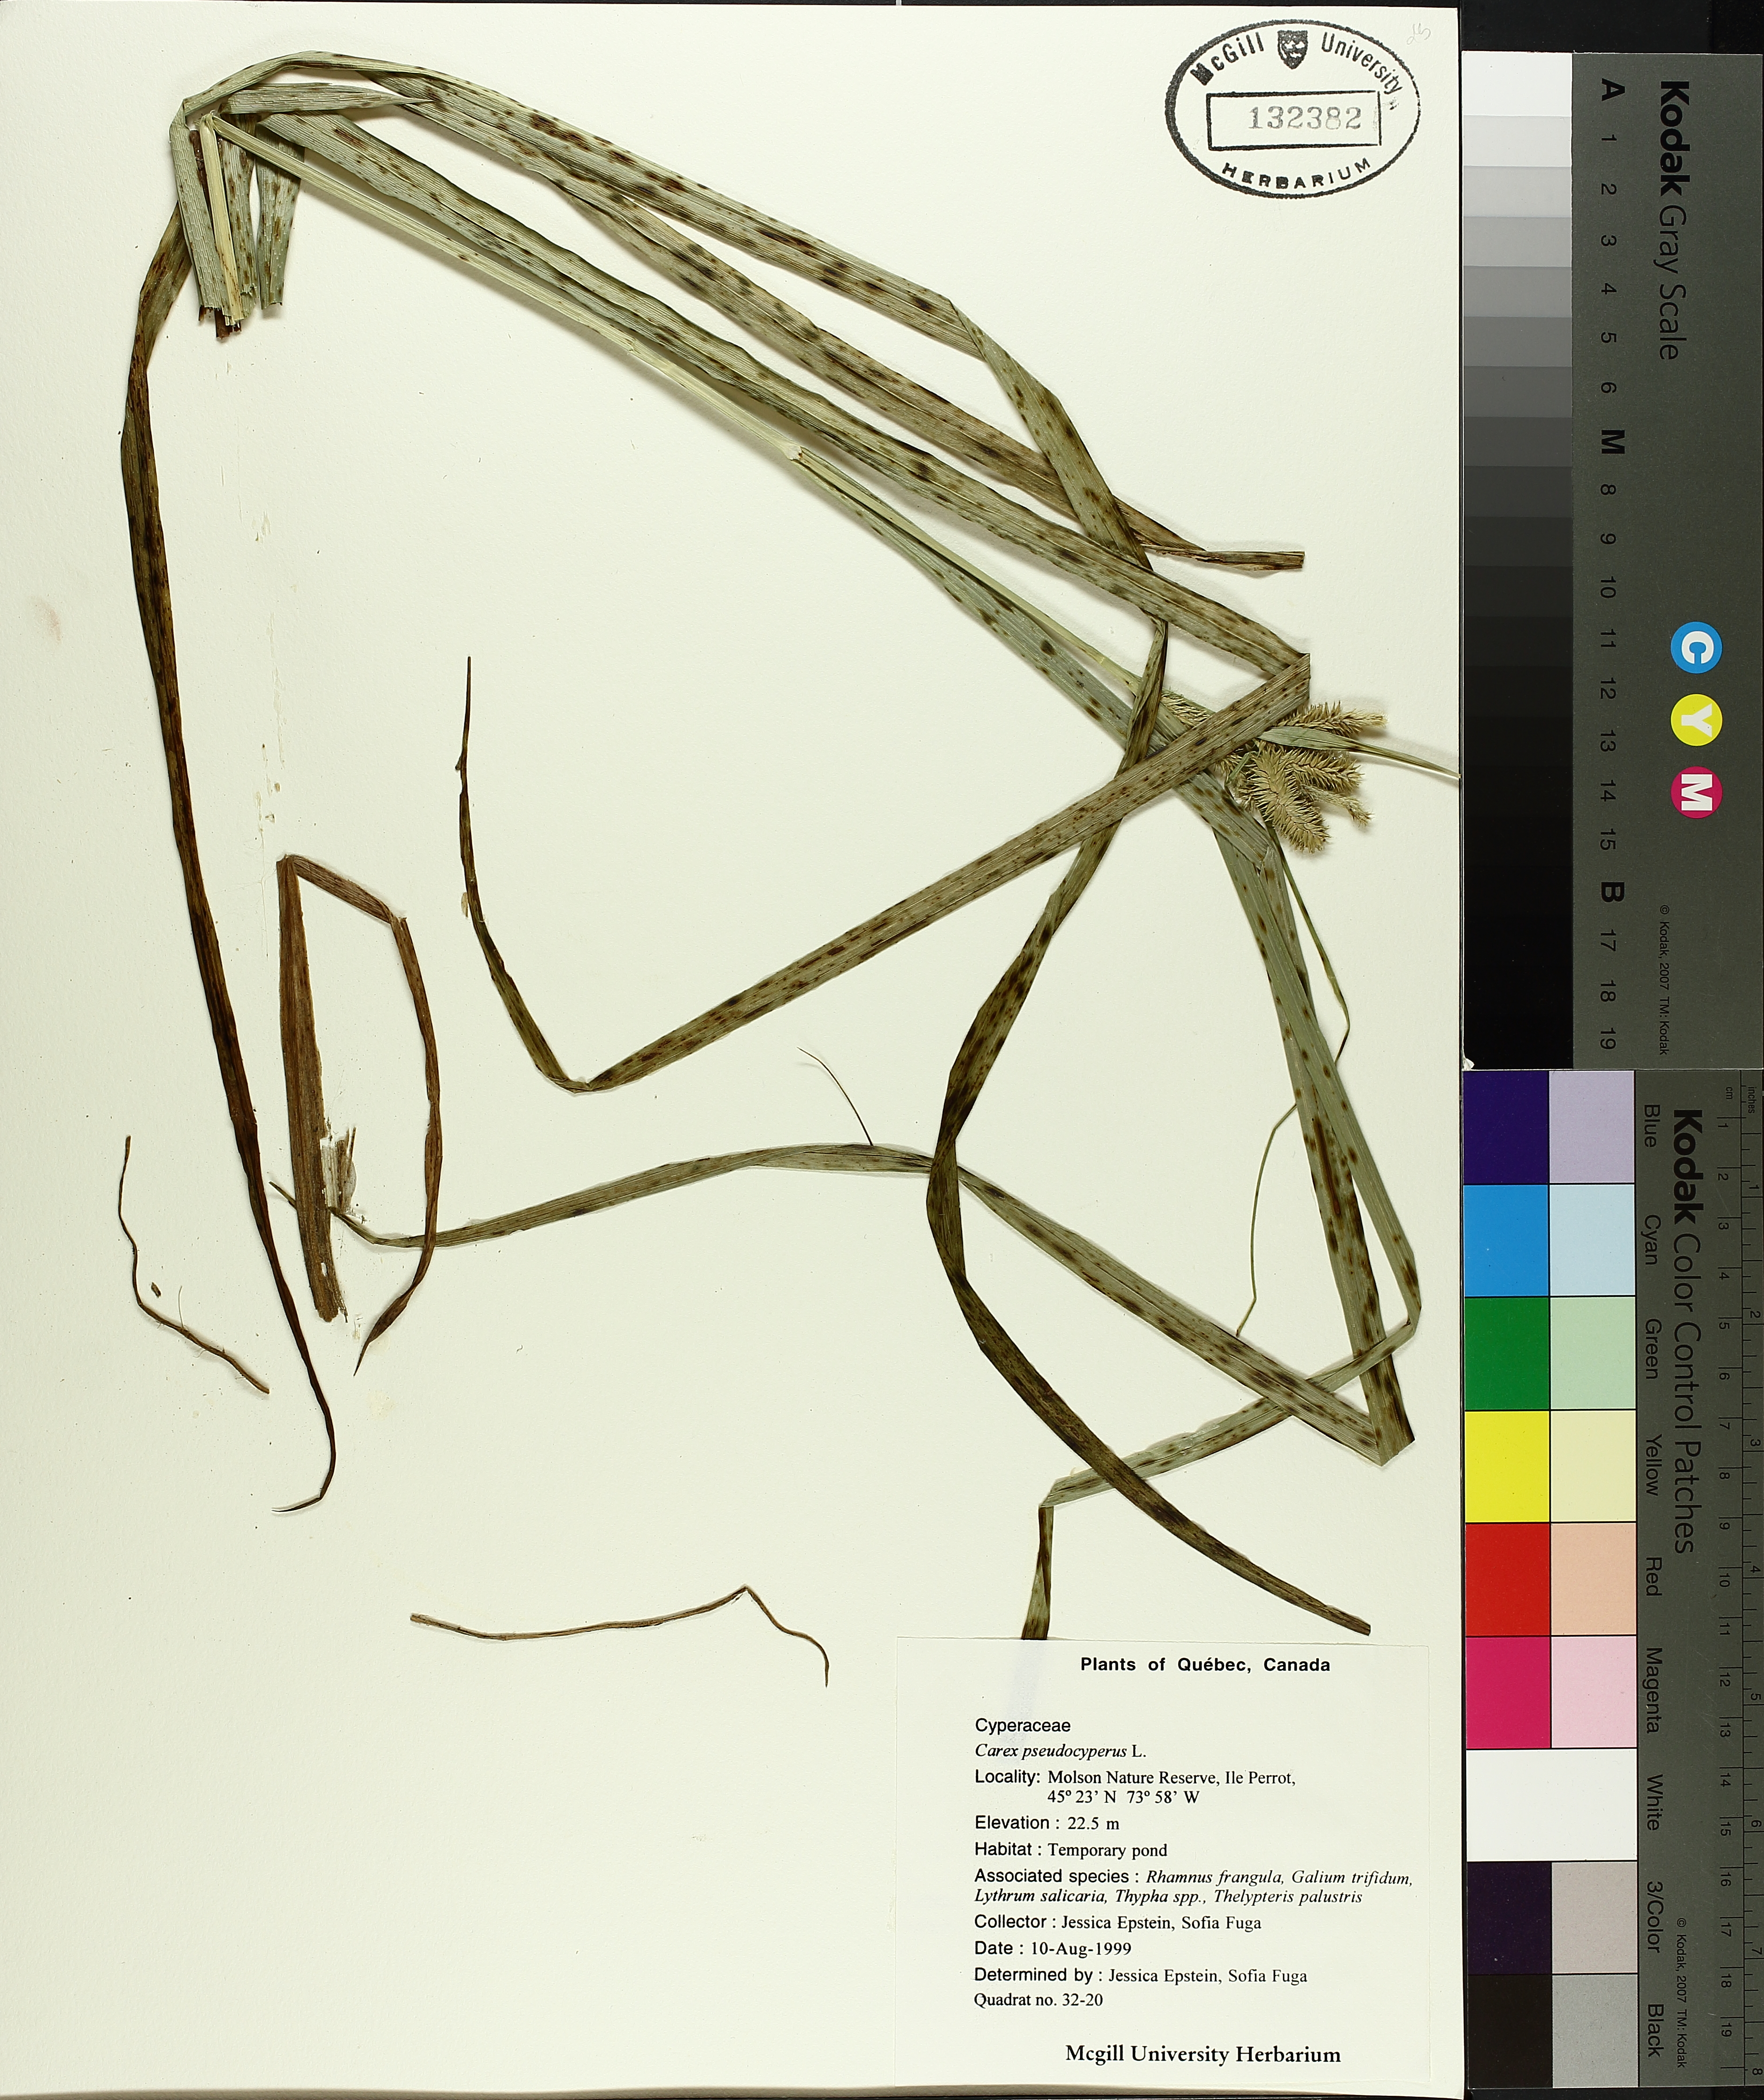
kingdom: Plantae
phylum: Tracheophyta
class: Liliopsida
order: Poales
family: Cyperaceae
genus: Carex
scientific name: Carex pseudocyperus
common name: Cyperus sedge
